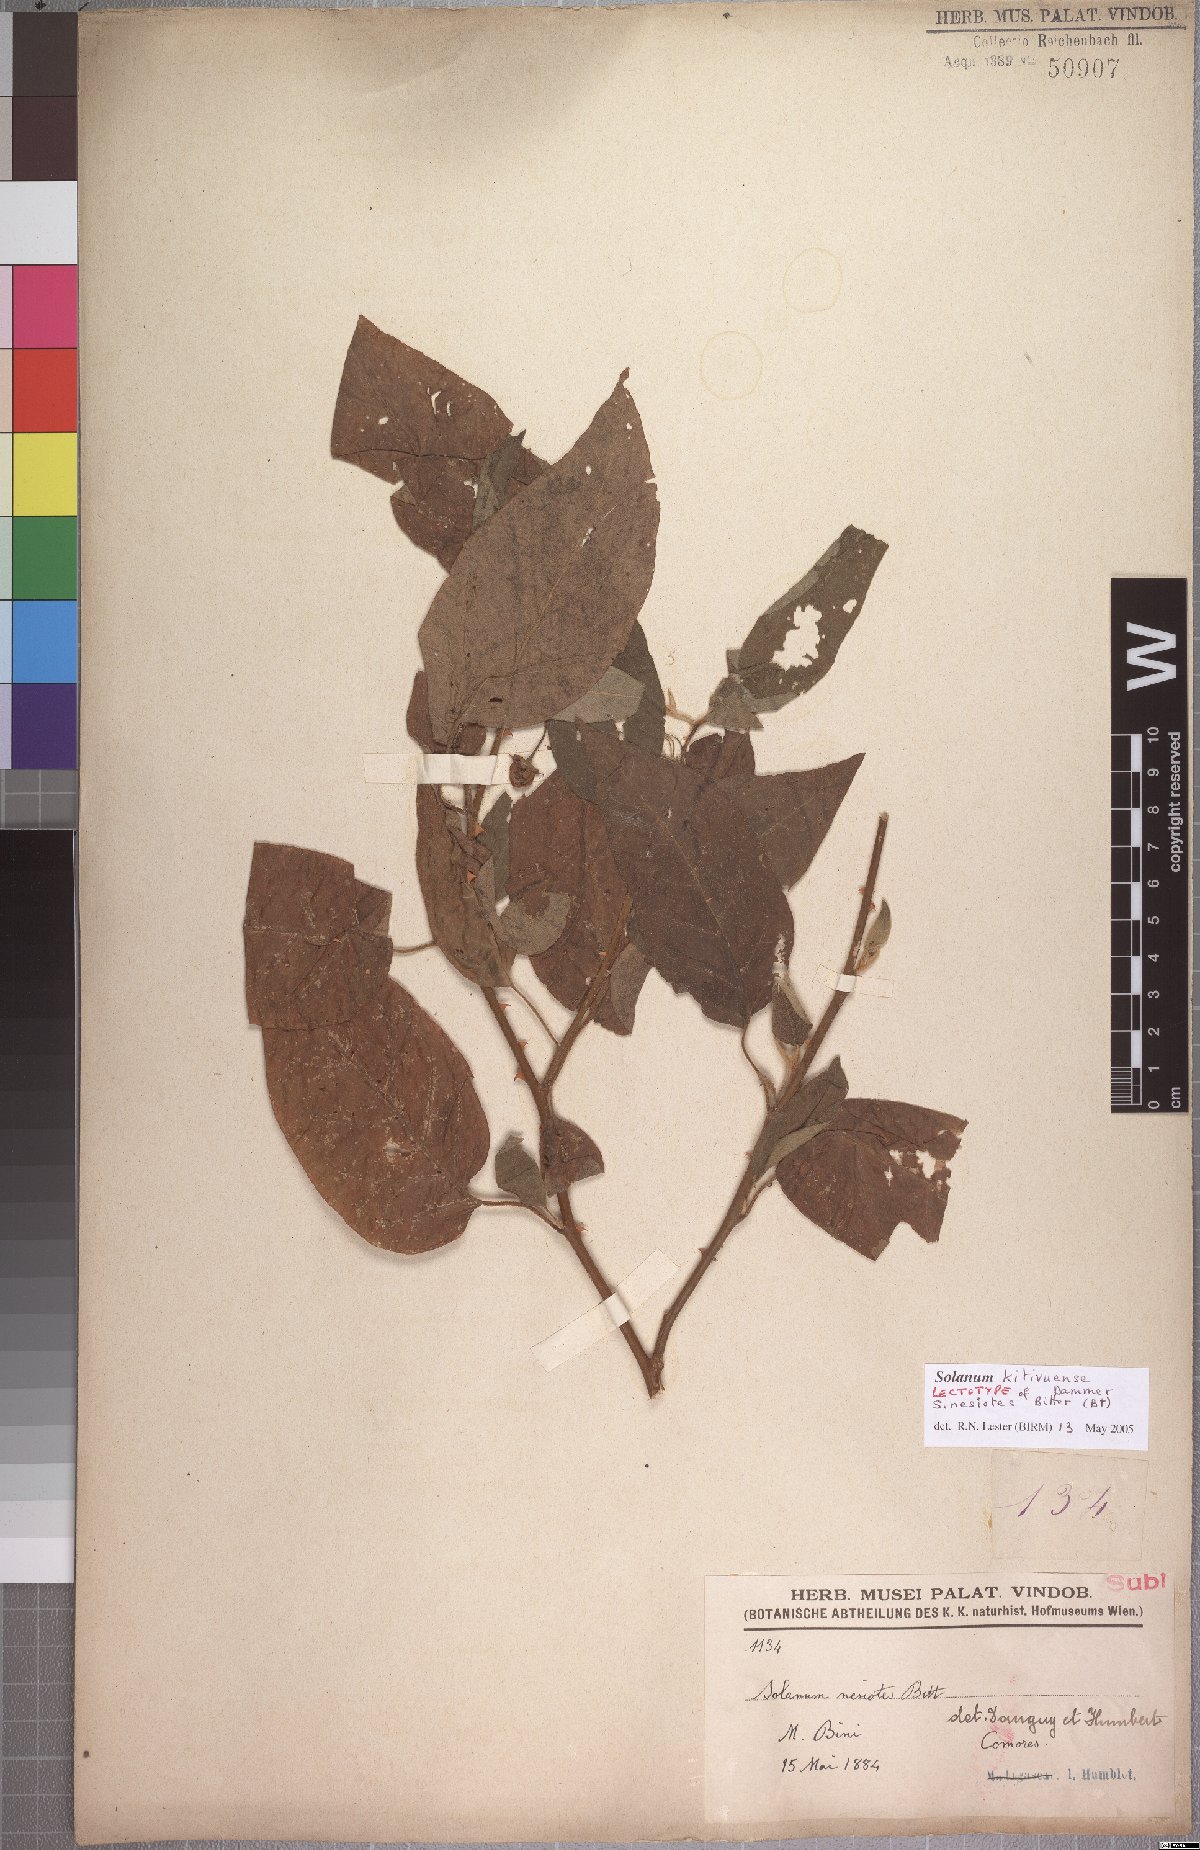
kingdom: Plantae
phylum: Tracheophyta
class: Magnoliopsida
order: Solanales
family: Solanaceae
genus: Solanum
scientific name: Solanum erythracanthum
